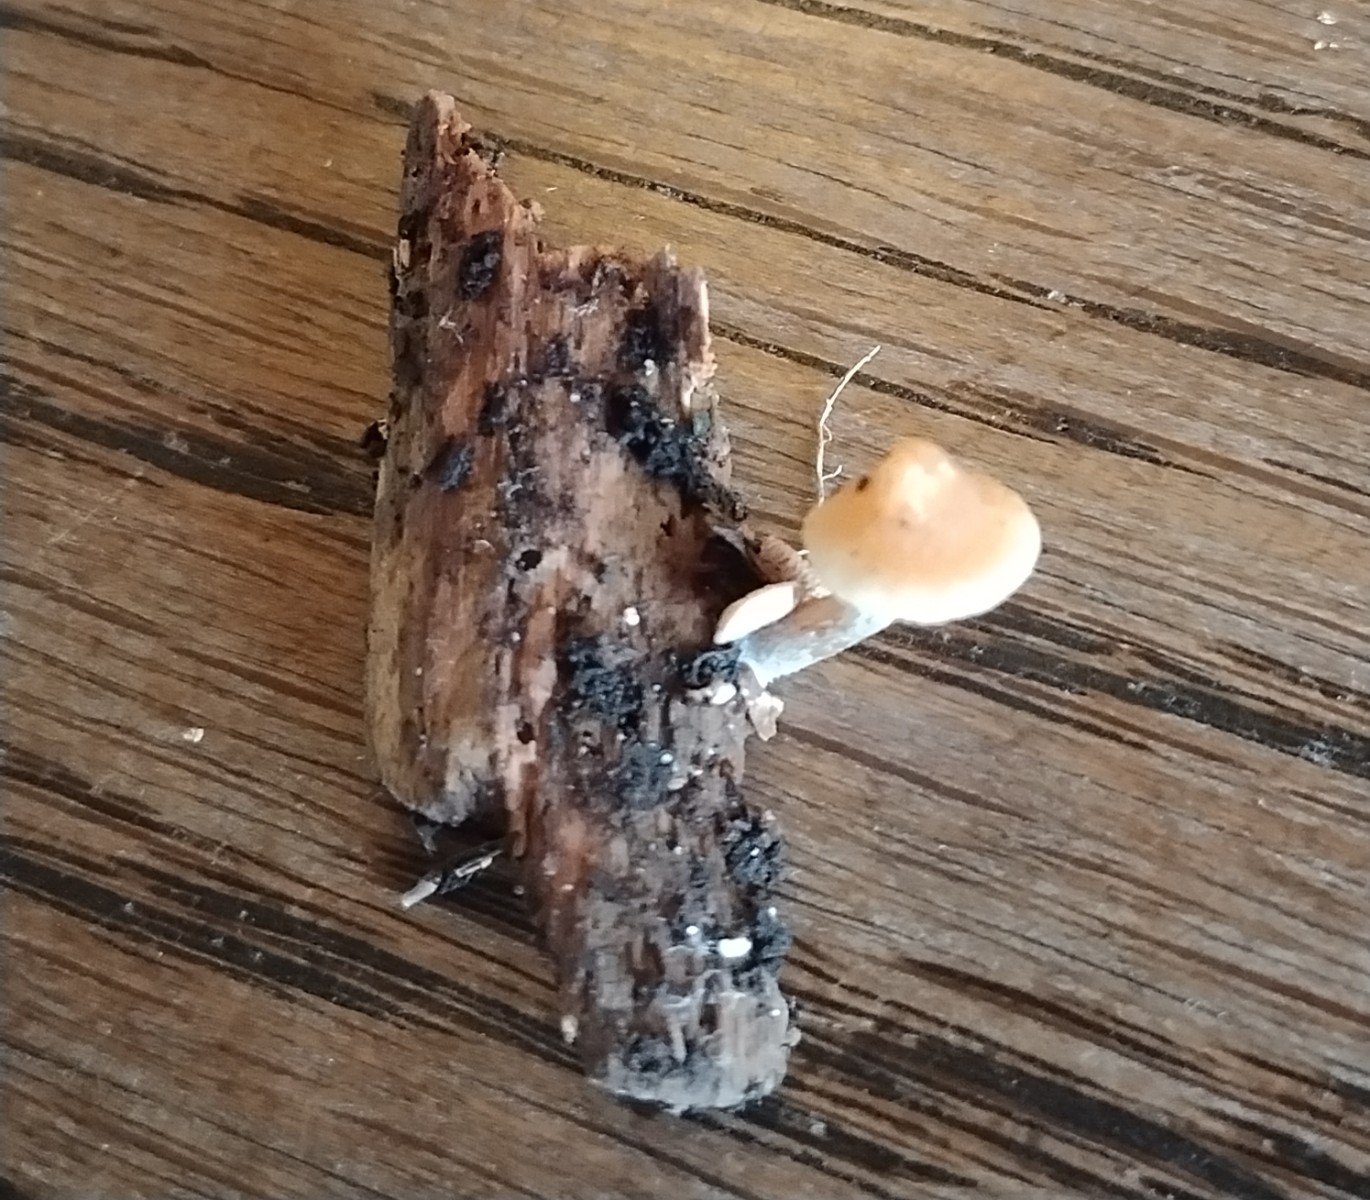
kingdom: Fungi
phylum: Basidiomycota
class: Agaricomycetes
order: Agaricales
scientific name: Agaricales
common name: champignonordenen
